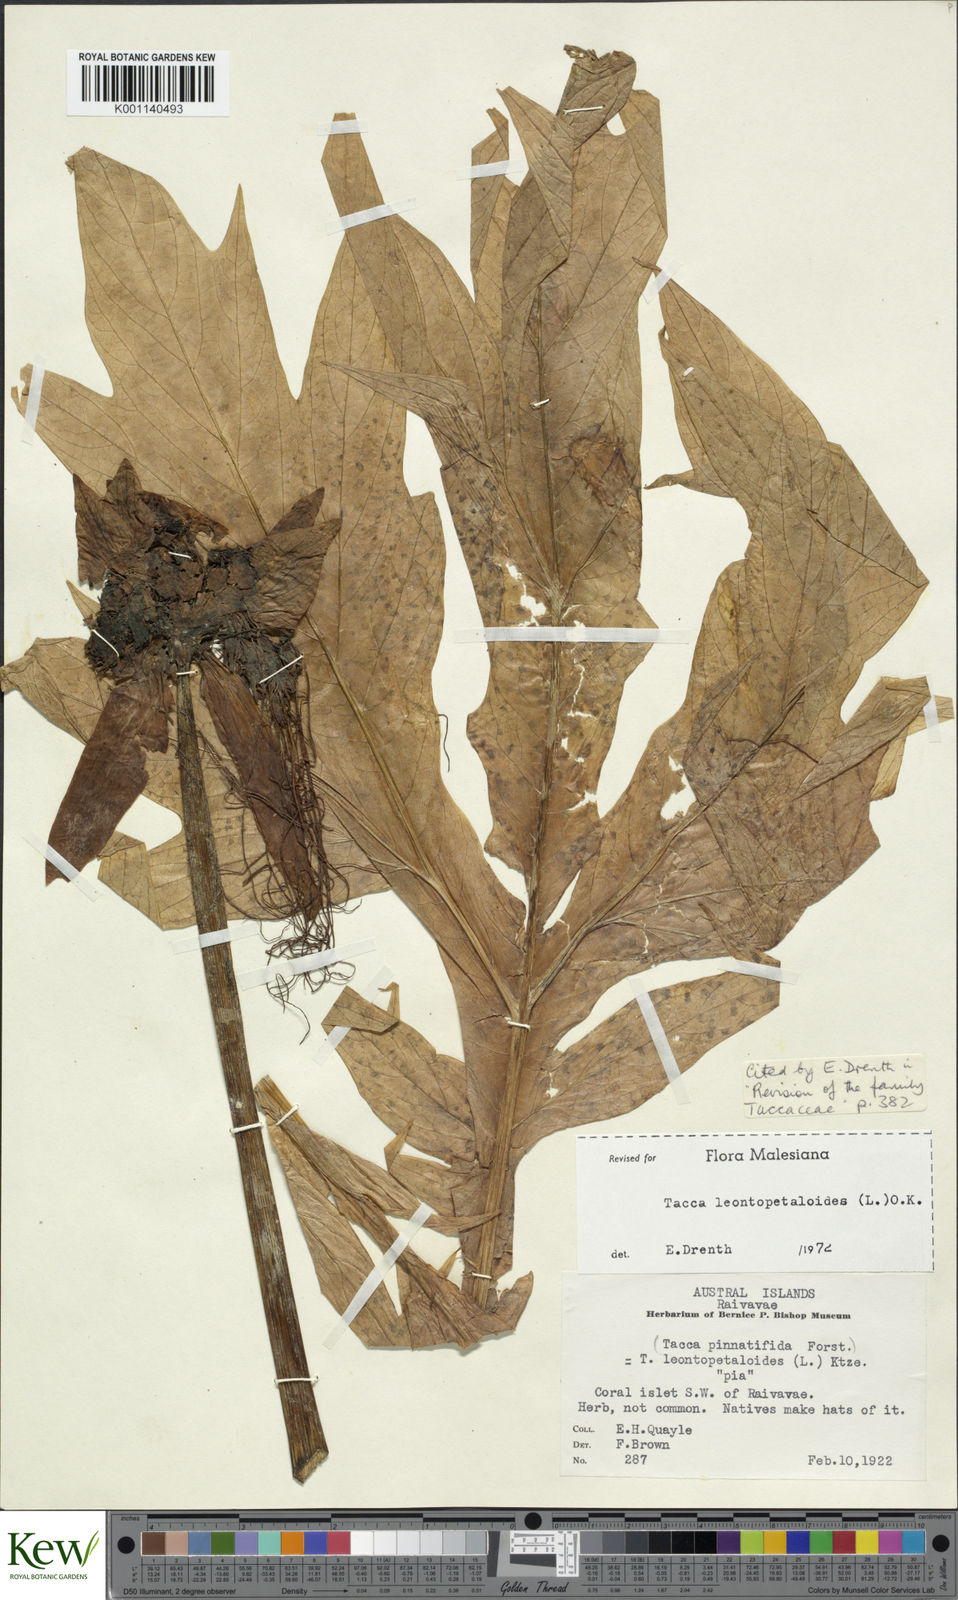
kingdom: Plantae
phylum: Tracheophyta
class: Liliopsida
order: Dioscoreales
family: Dioscoreaceae
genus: Tacca
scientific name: Tacca leontopetaloides
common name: Arrowroot
